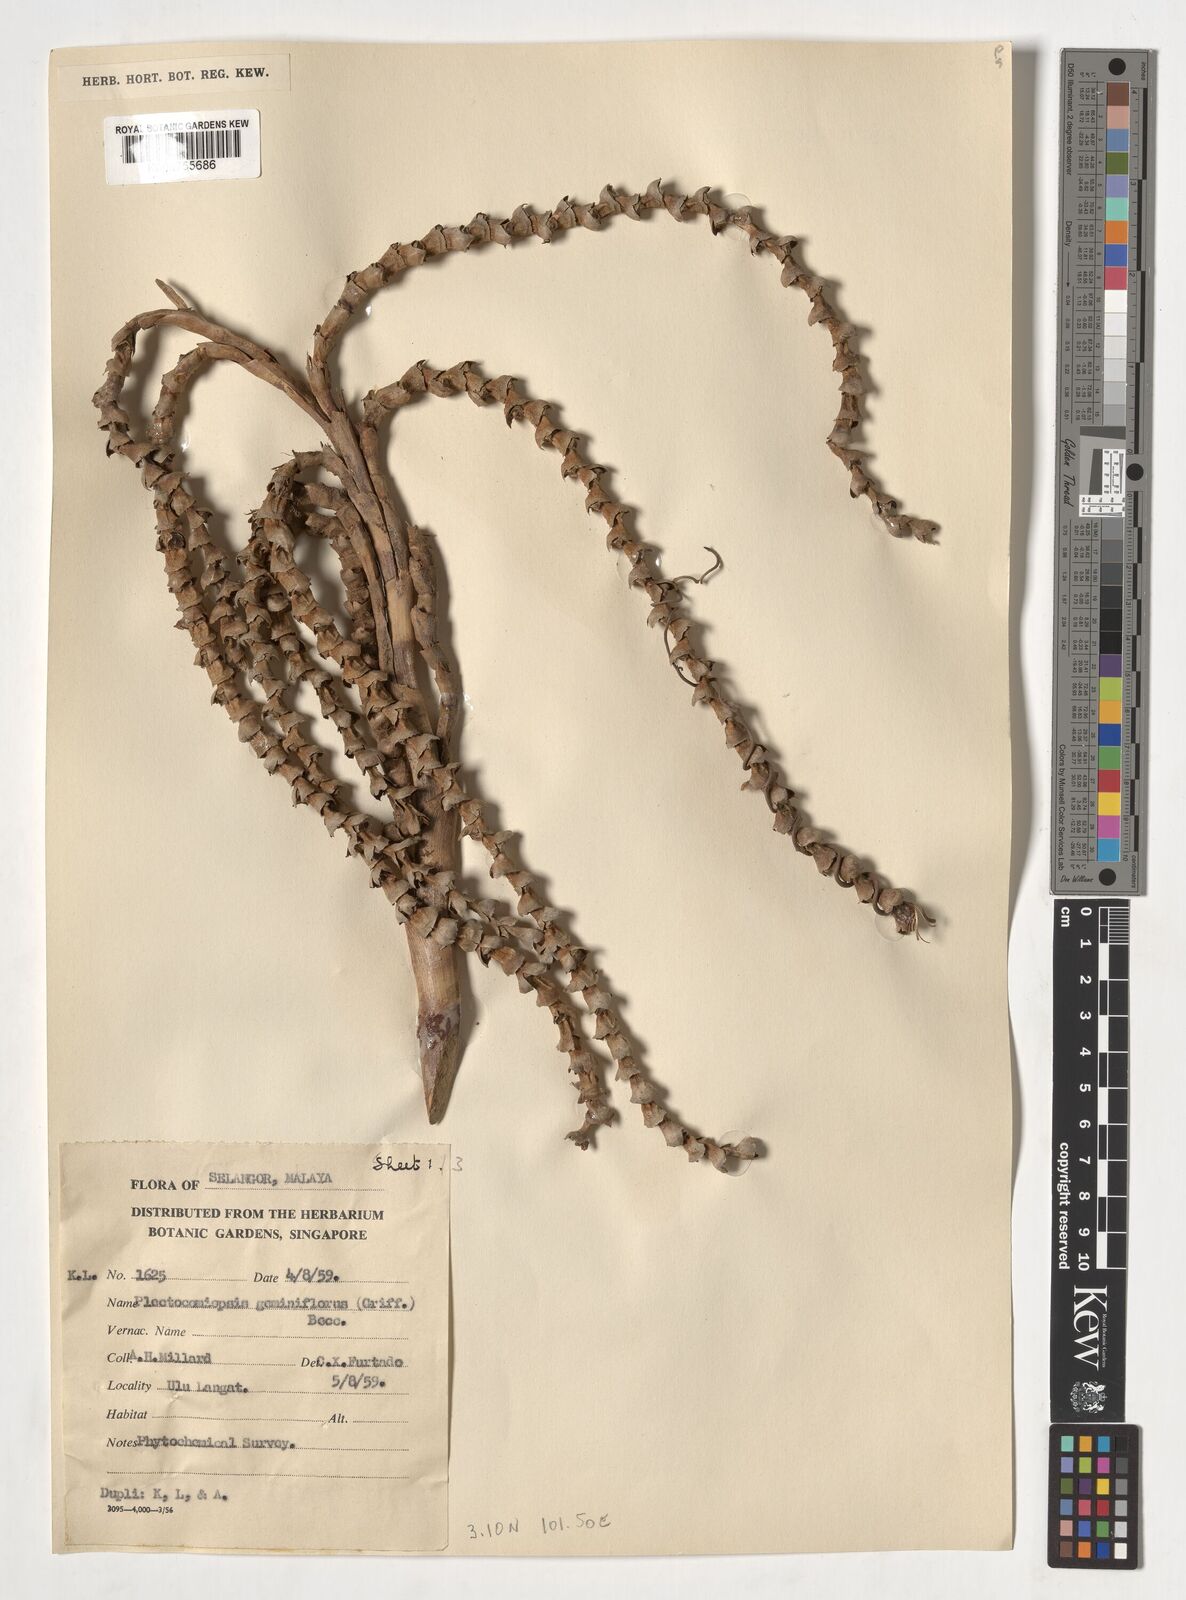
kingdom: Plantae
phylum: Tracheophyta
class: Liliopsida
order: Arecales
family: Arecaceae
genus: Plectocomiopsis
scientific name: Plectocomiopsis geminiflora
